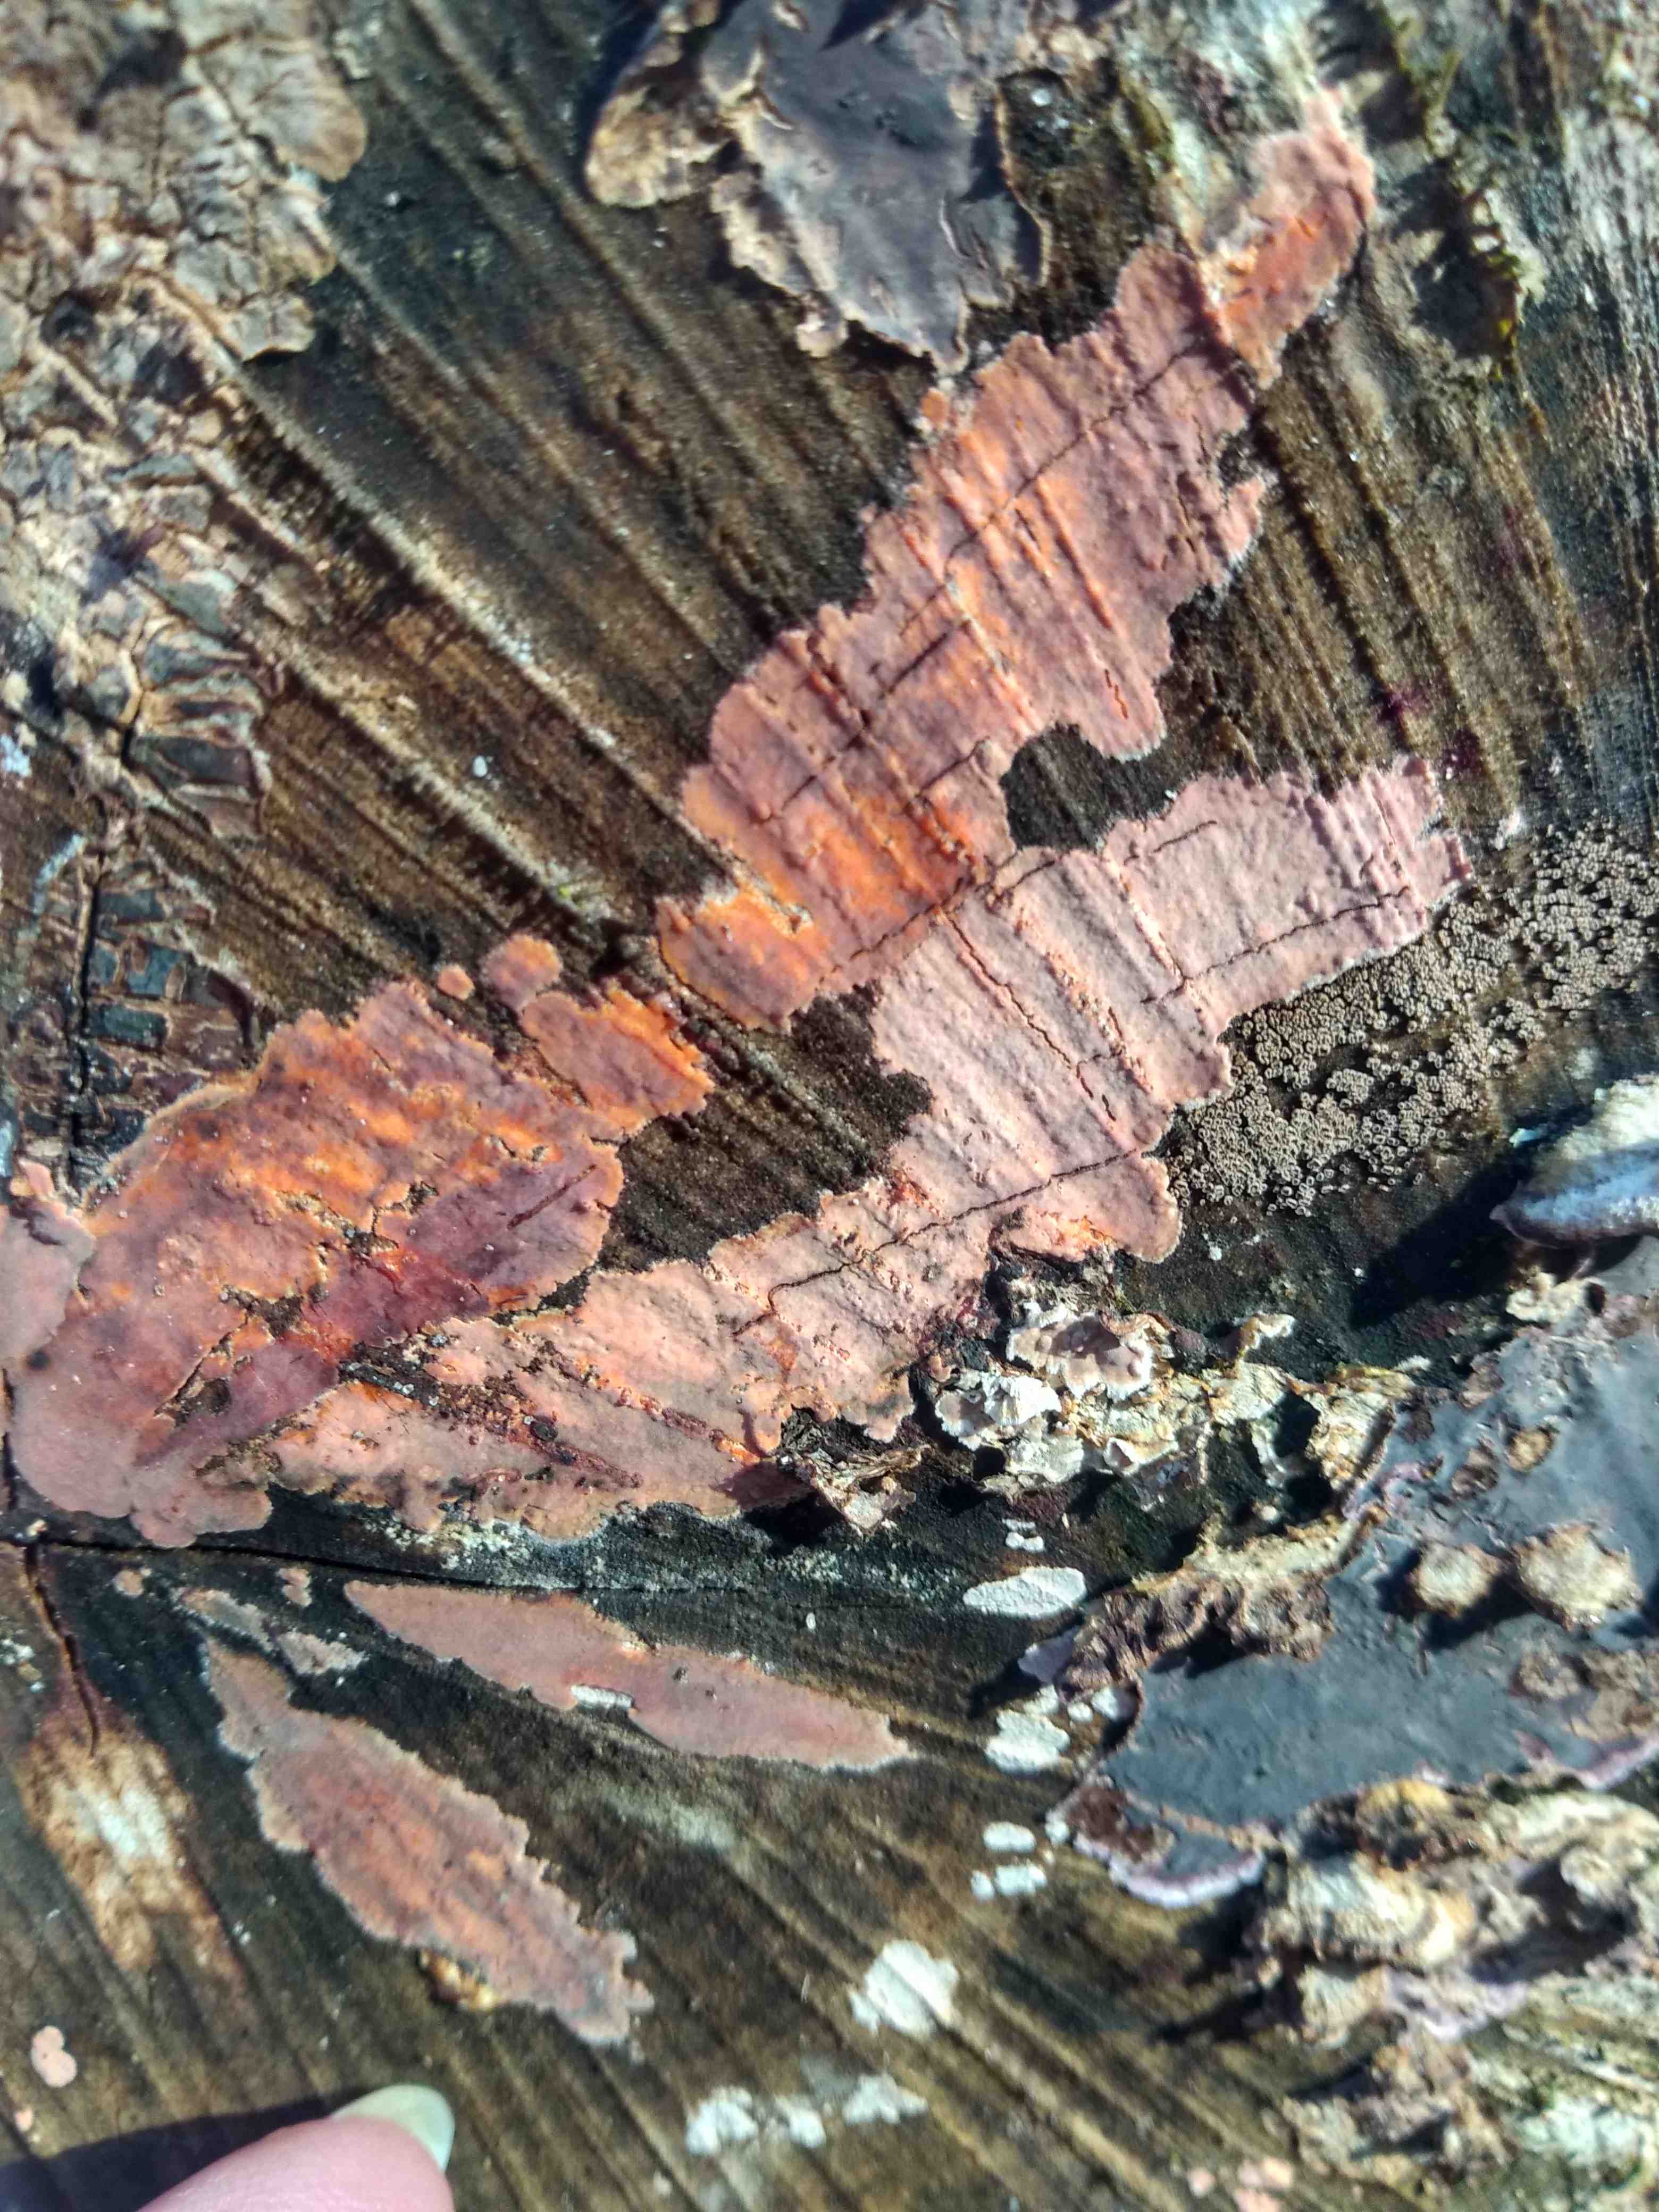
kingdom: Fungi
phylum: Basidiomycota
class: Agaricomycetes
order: Russulales
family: Peniophoraceae
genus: Peniophora
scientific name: Peniophora incarnata
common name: laksefarvet voksskind
